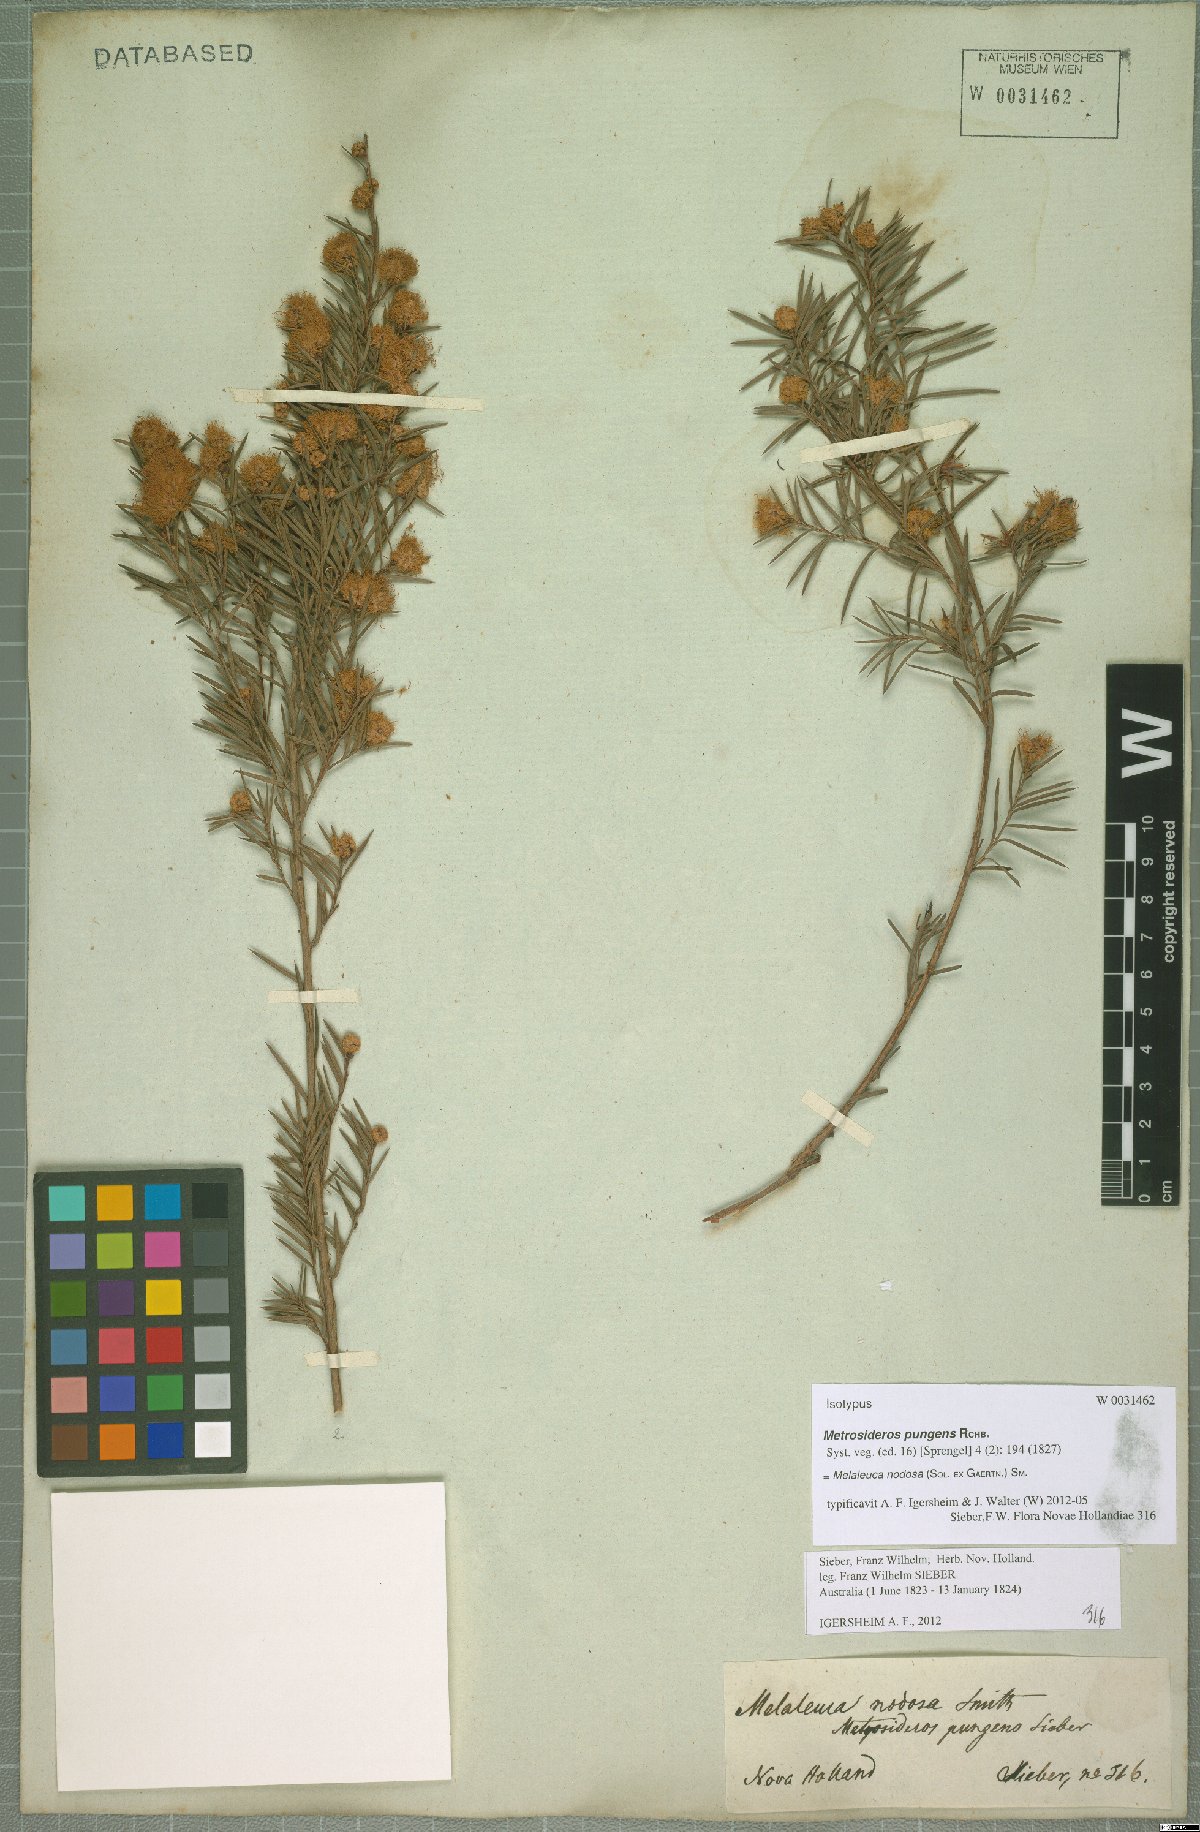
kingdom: Plantae
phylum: Tracheophyta
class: Magnoliopsida
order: Myrtales
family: Myrtaceae
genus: Melaleuca
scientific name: Melaleuca nodosa
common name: Prickly-leaf paperbark
